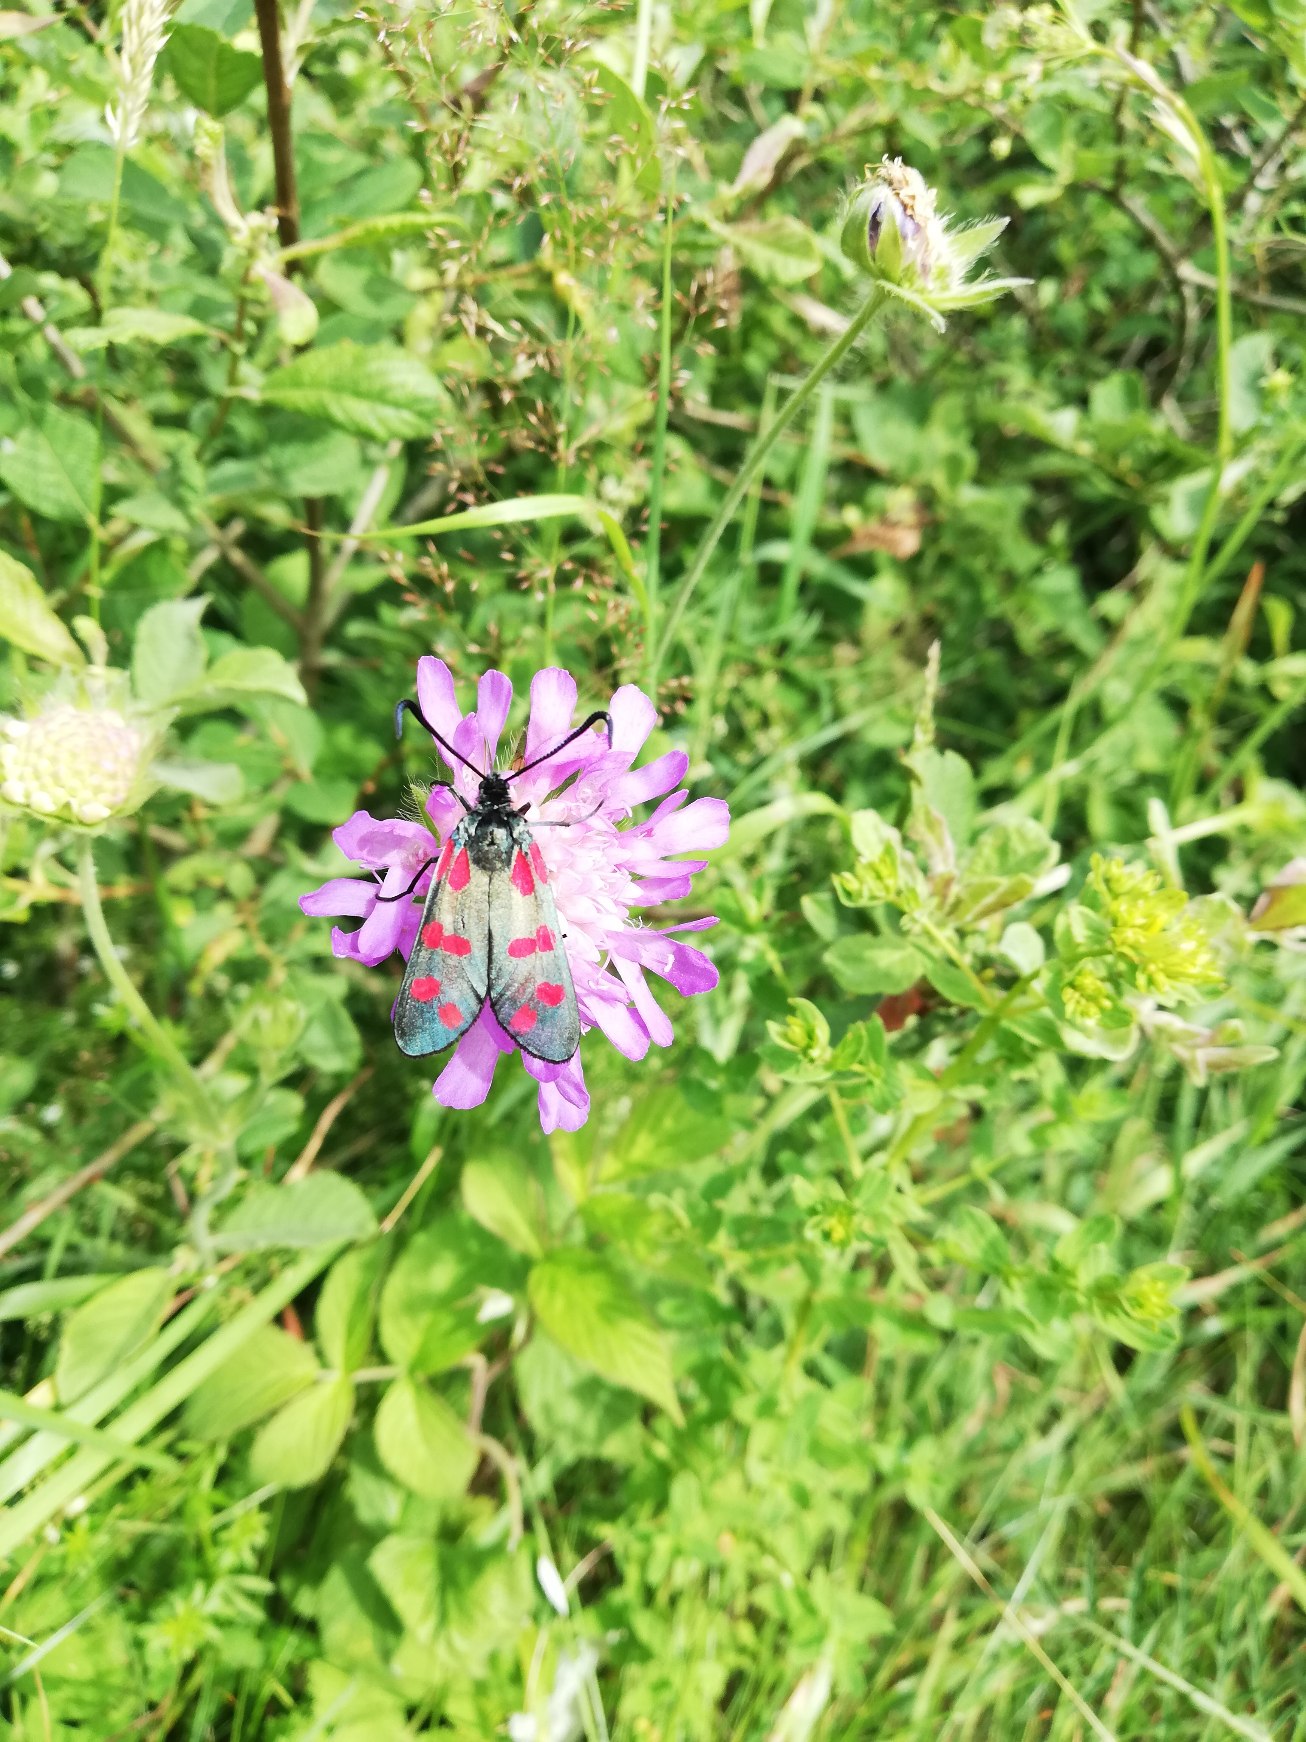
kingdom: Animalia
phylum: Arthropoda
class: Insecta
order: Lepidoptera
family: Zygaenidae
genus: Zygaena
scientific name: Zygaena filipendulae
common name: Seksplettet køllesværmer
